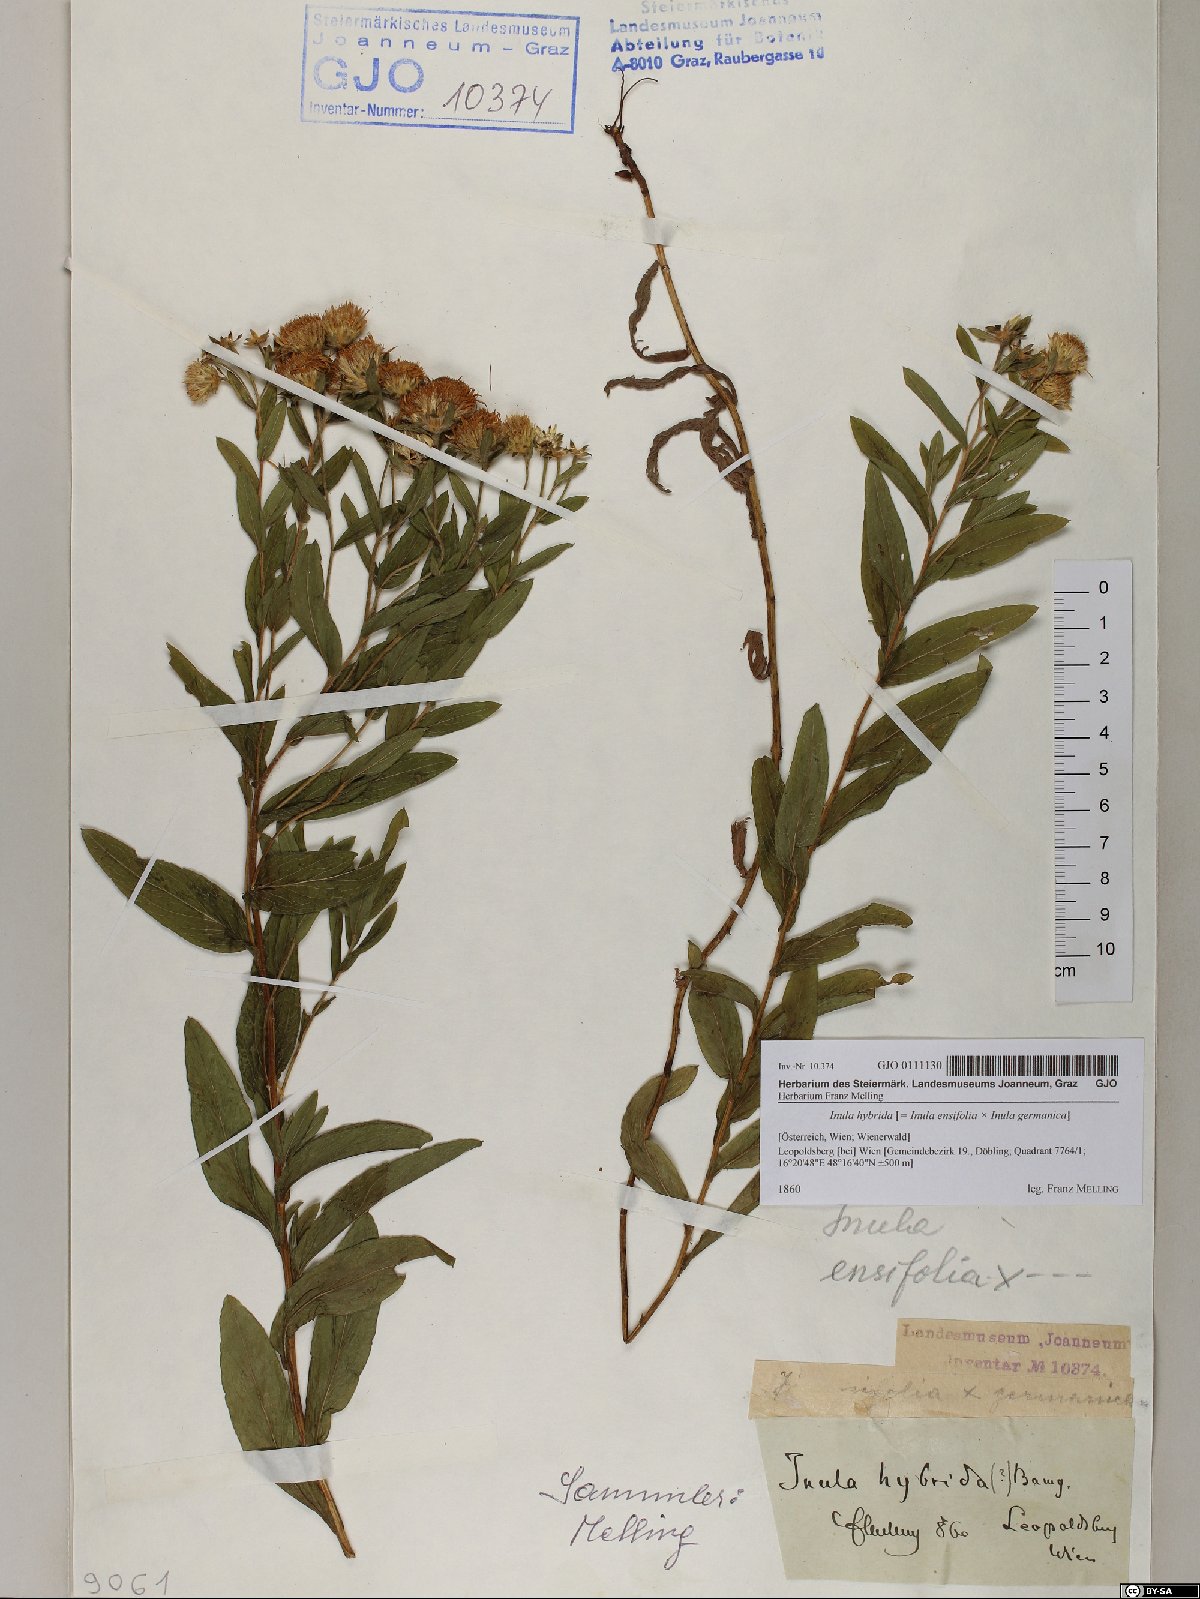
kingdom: Plantae
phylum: Tracheophyta
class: Magnoliopsida
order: Asterales
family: Asteraceae
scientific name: Asteraceae
